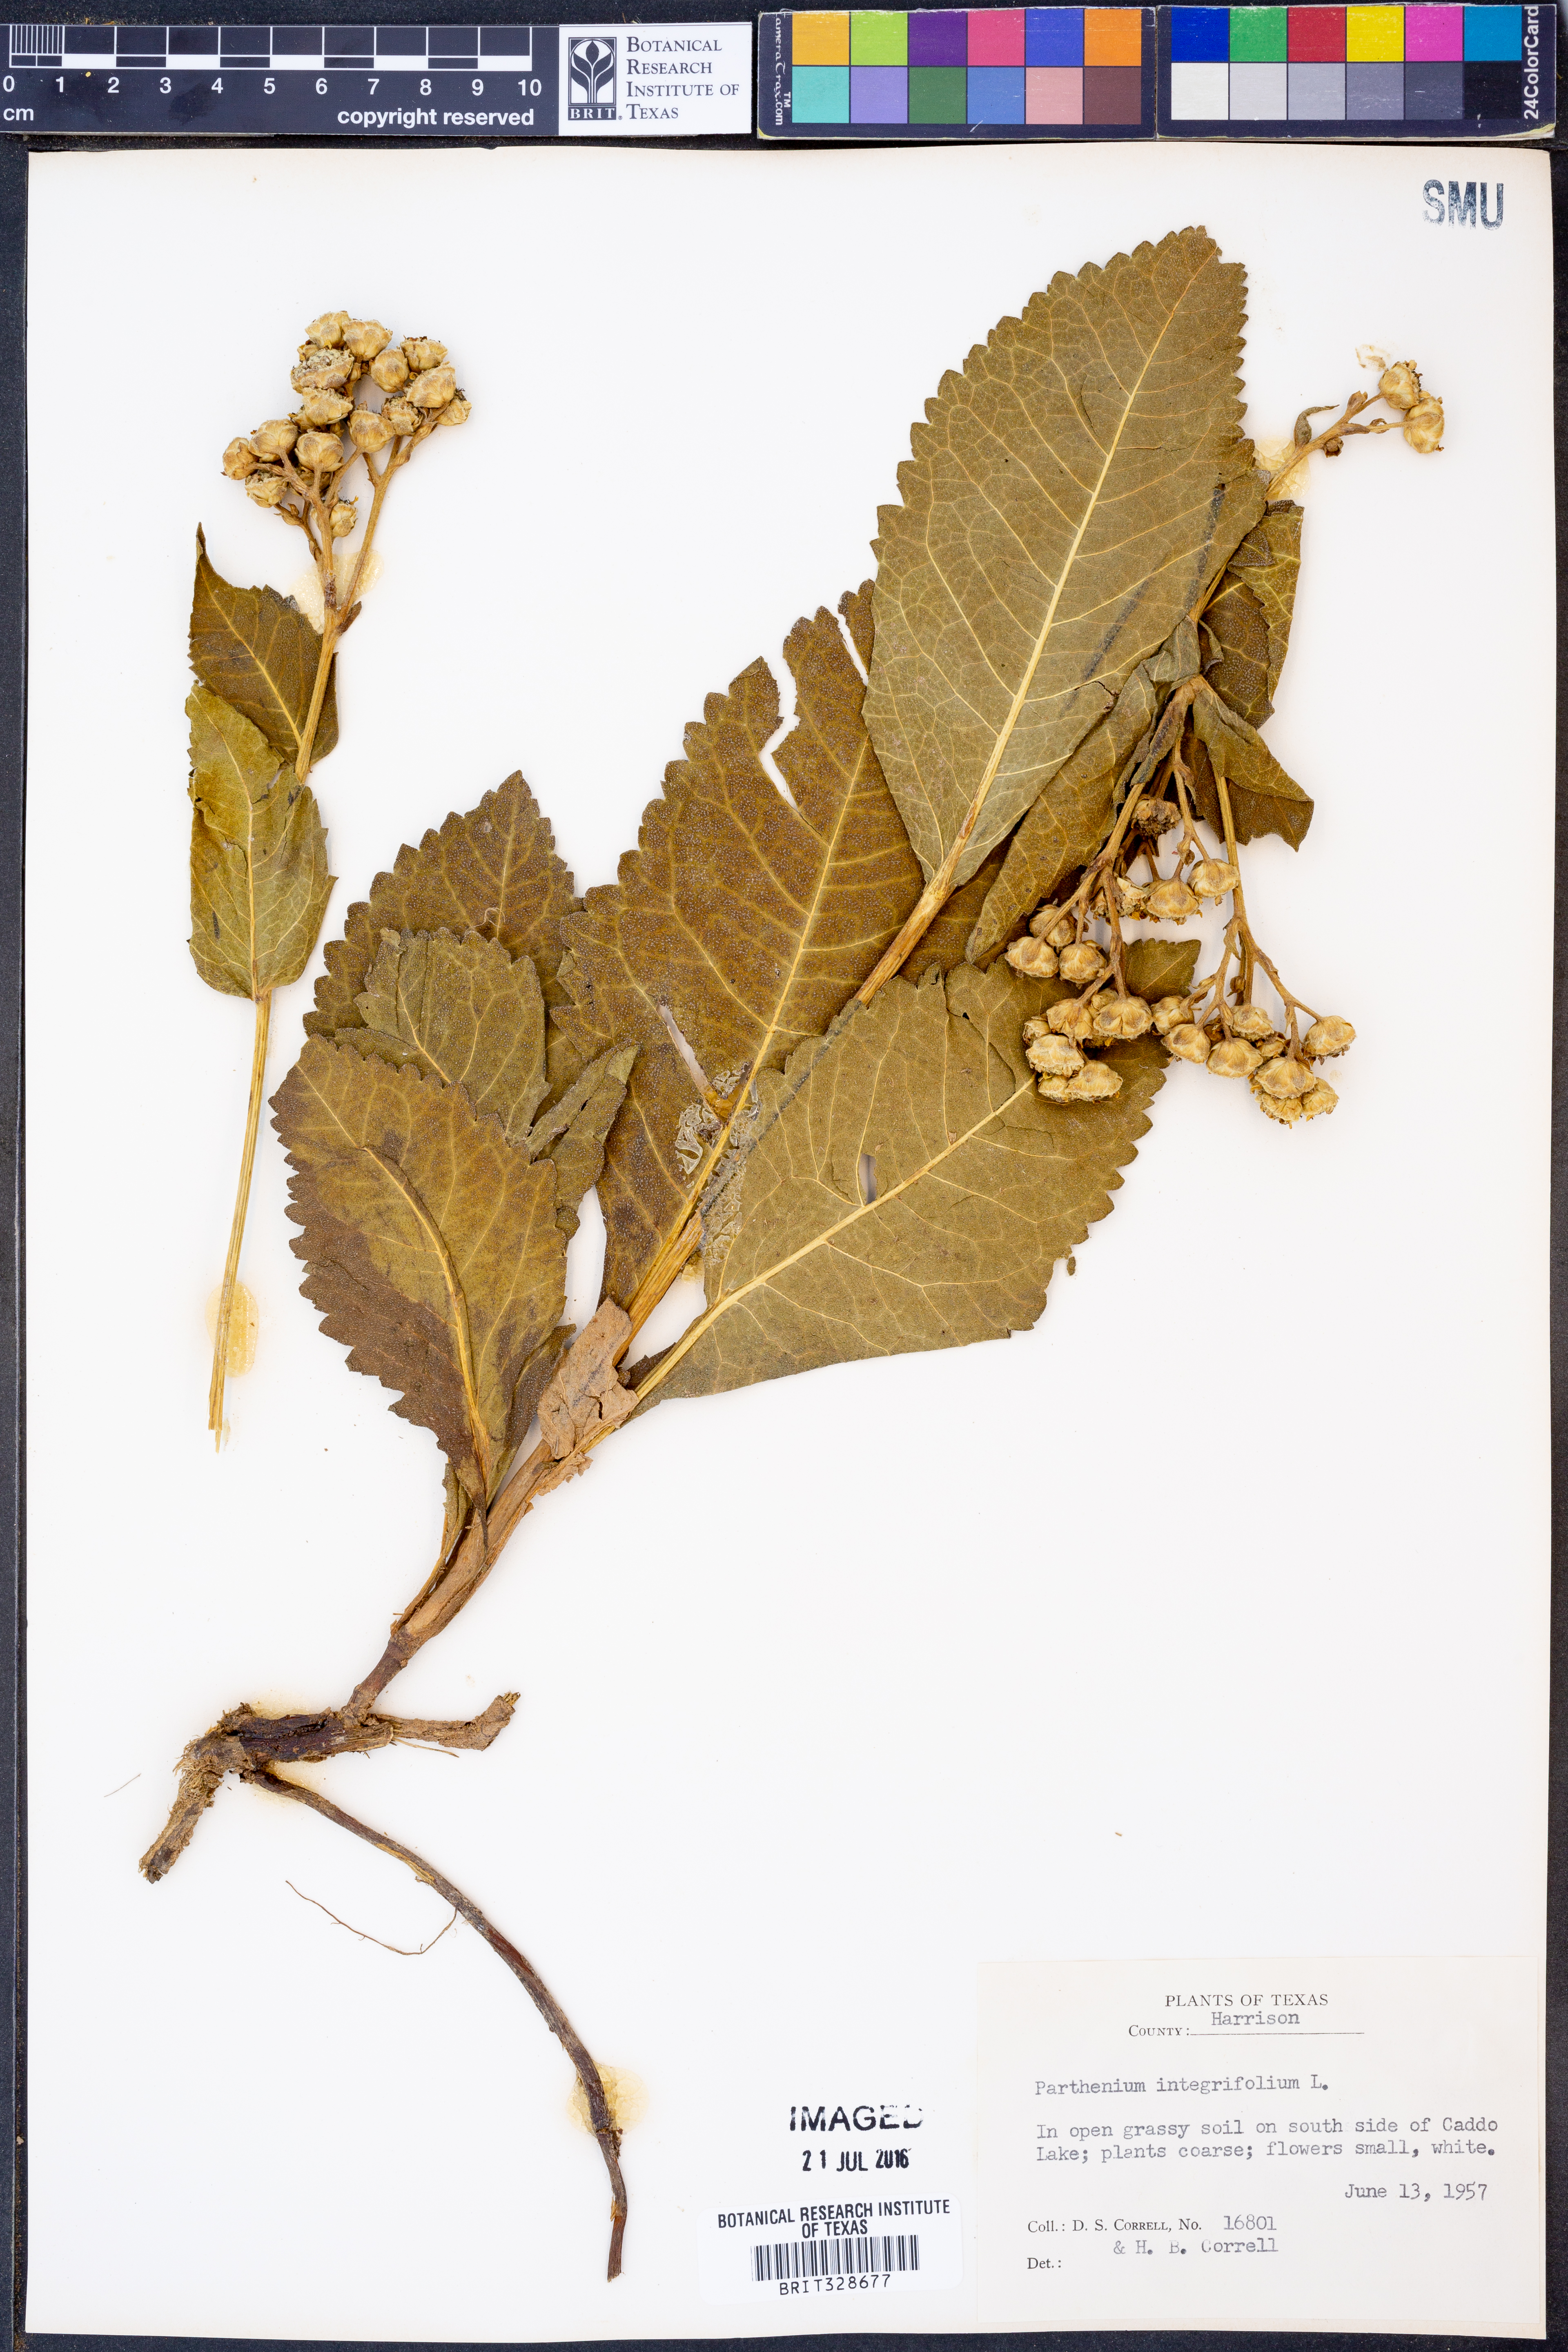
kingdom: Plantae
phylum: Tracheophyta
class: Magnoliopsida
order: Asterales
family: Asteraceae
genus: Parthenium
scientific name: Parthenium integrifolium
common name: American feverfew
